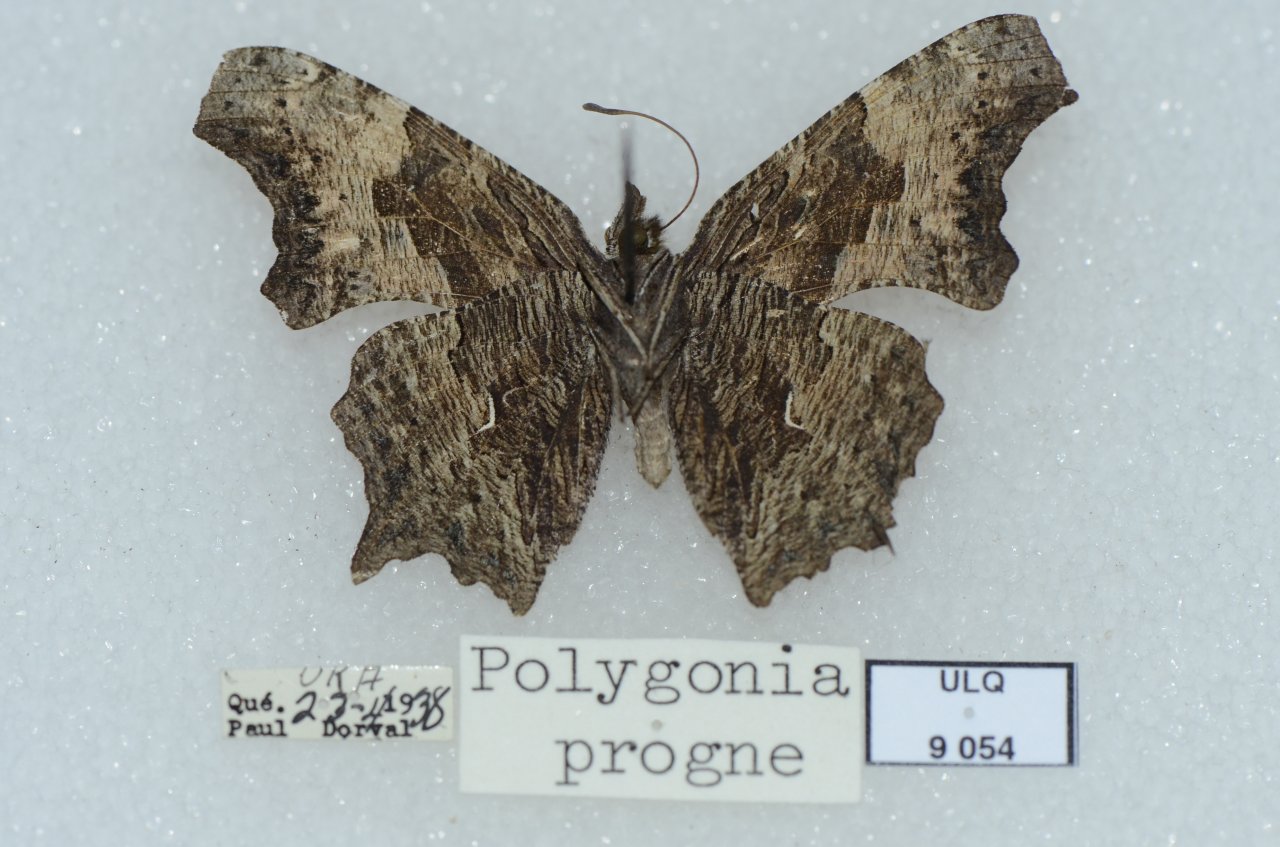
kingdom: Animalia
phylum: Arthropoda
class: Insecta
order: Lepidoptera
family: Nymphalidae
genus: Polygonia
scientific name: Polygonia progne
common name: Gray Comma
